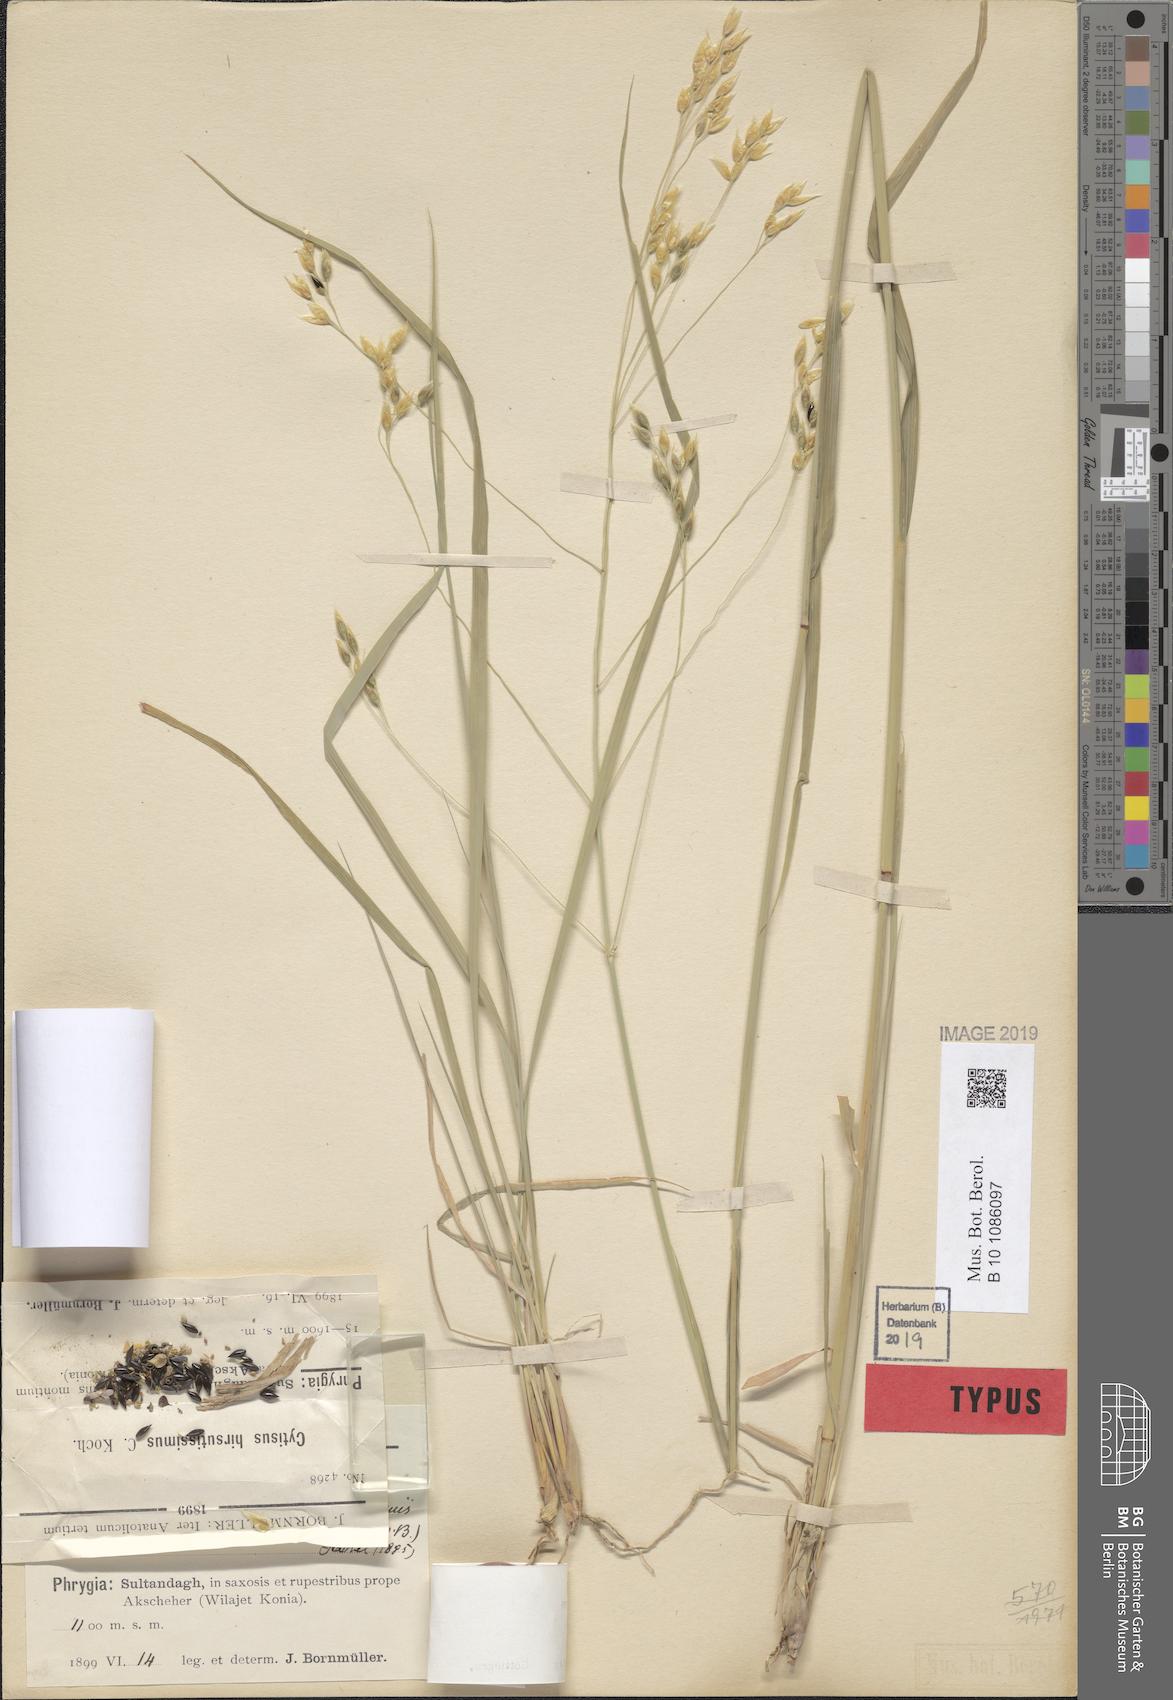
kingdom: Plantae
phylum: Tracheophyta
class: Liliopsida
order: Poales
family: Poaceae
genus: Piptatherum
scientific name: Piptatherum holciforme
